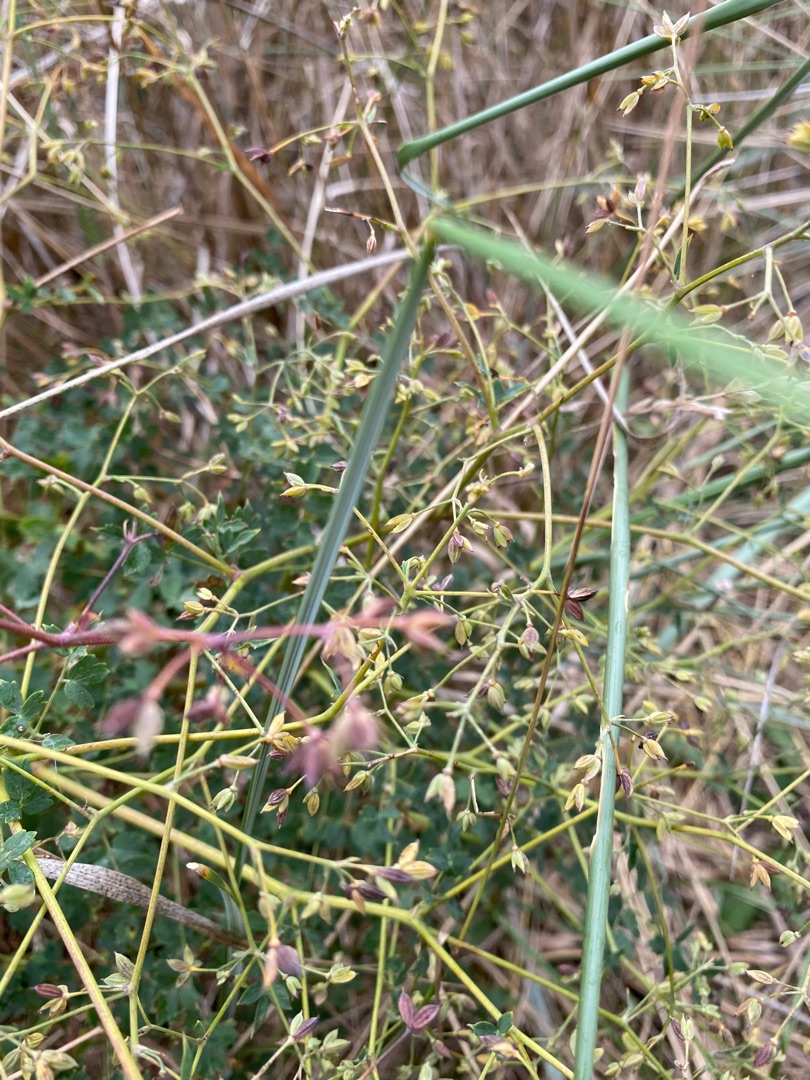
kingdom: Plantae
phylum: Tracheophyta
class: Magnoliopsida
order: Ranunculales
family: Ranunculaceae
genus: Thalictrum
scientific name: Thalictrum minus
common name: Sand-frøstjerne
